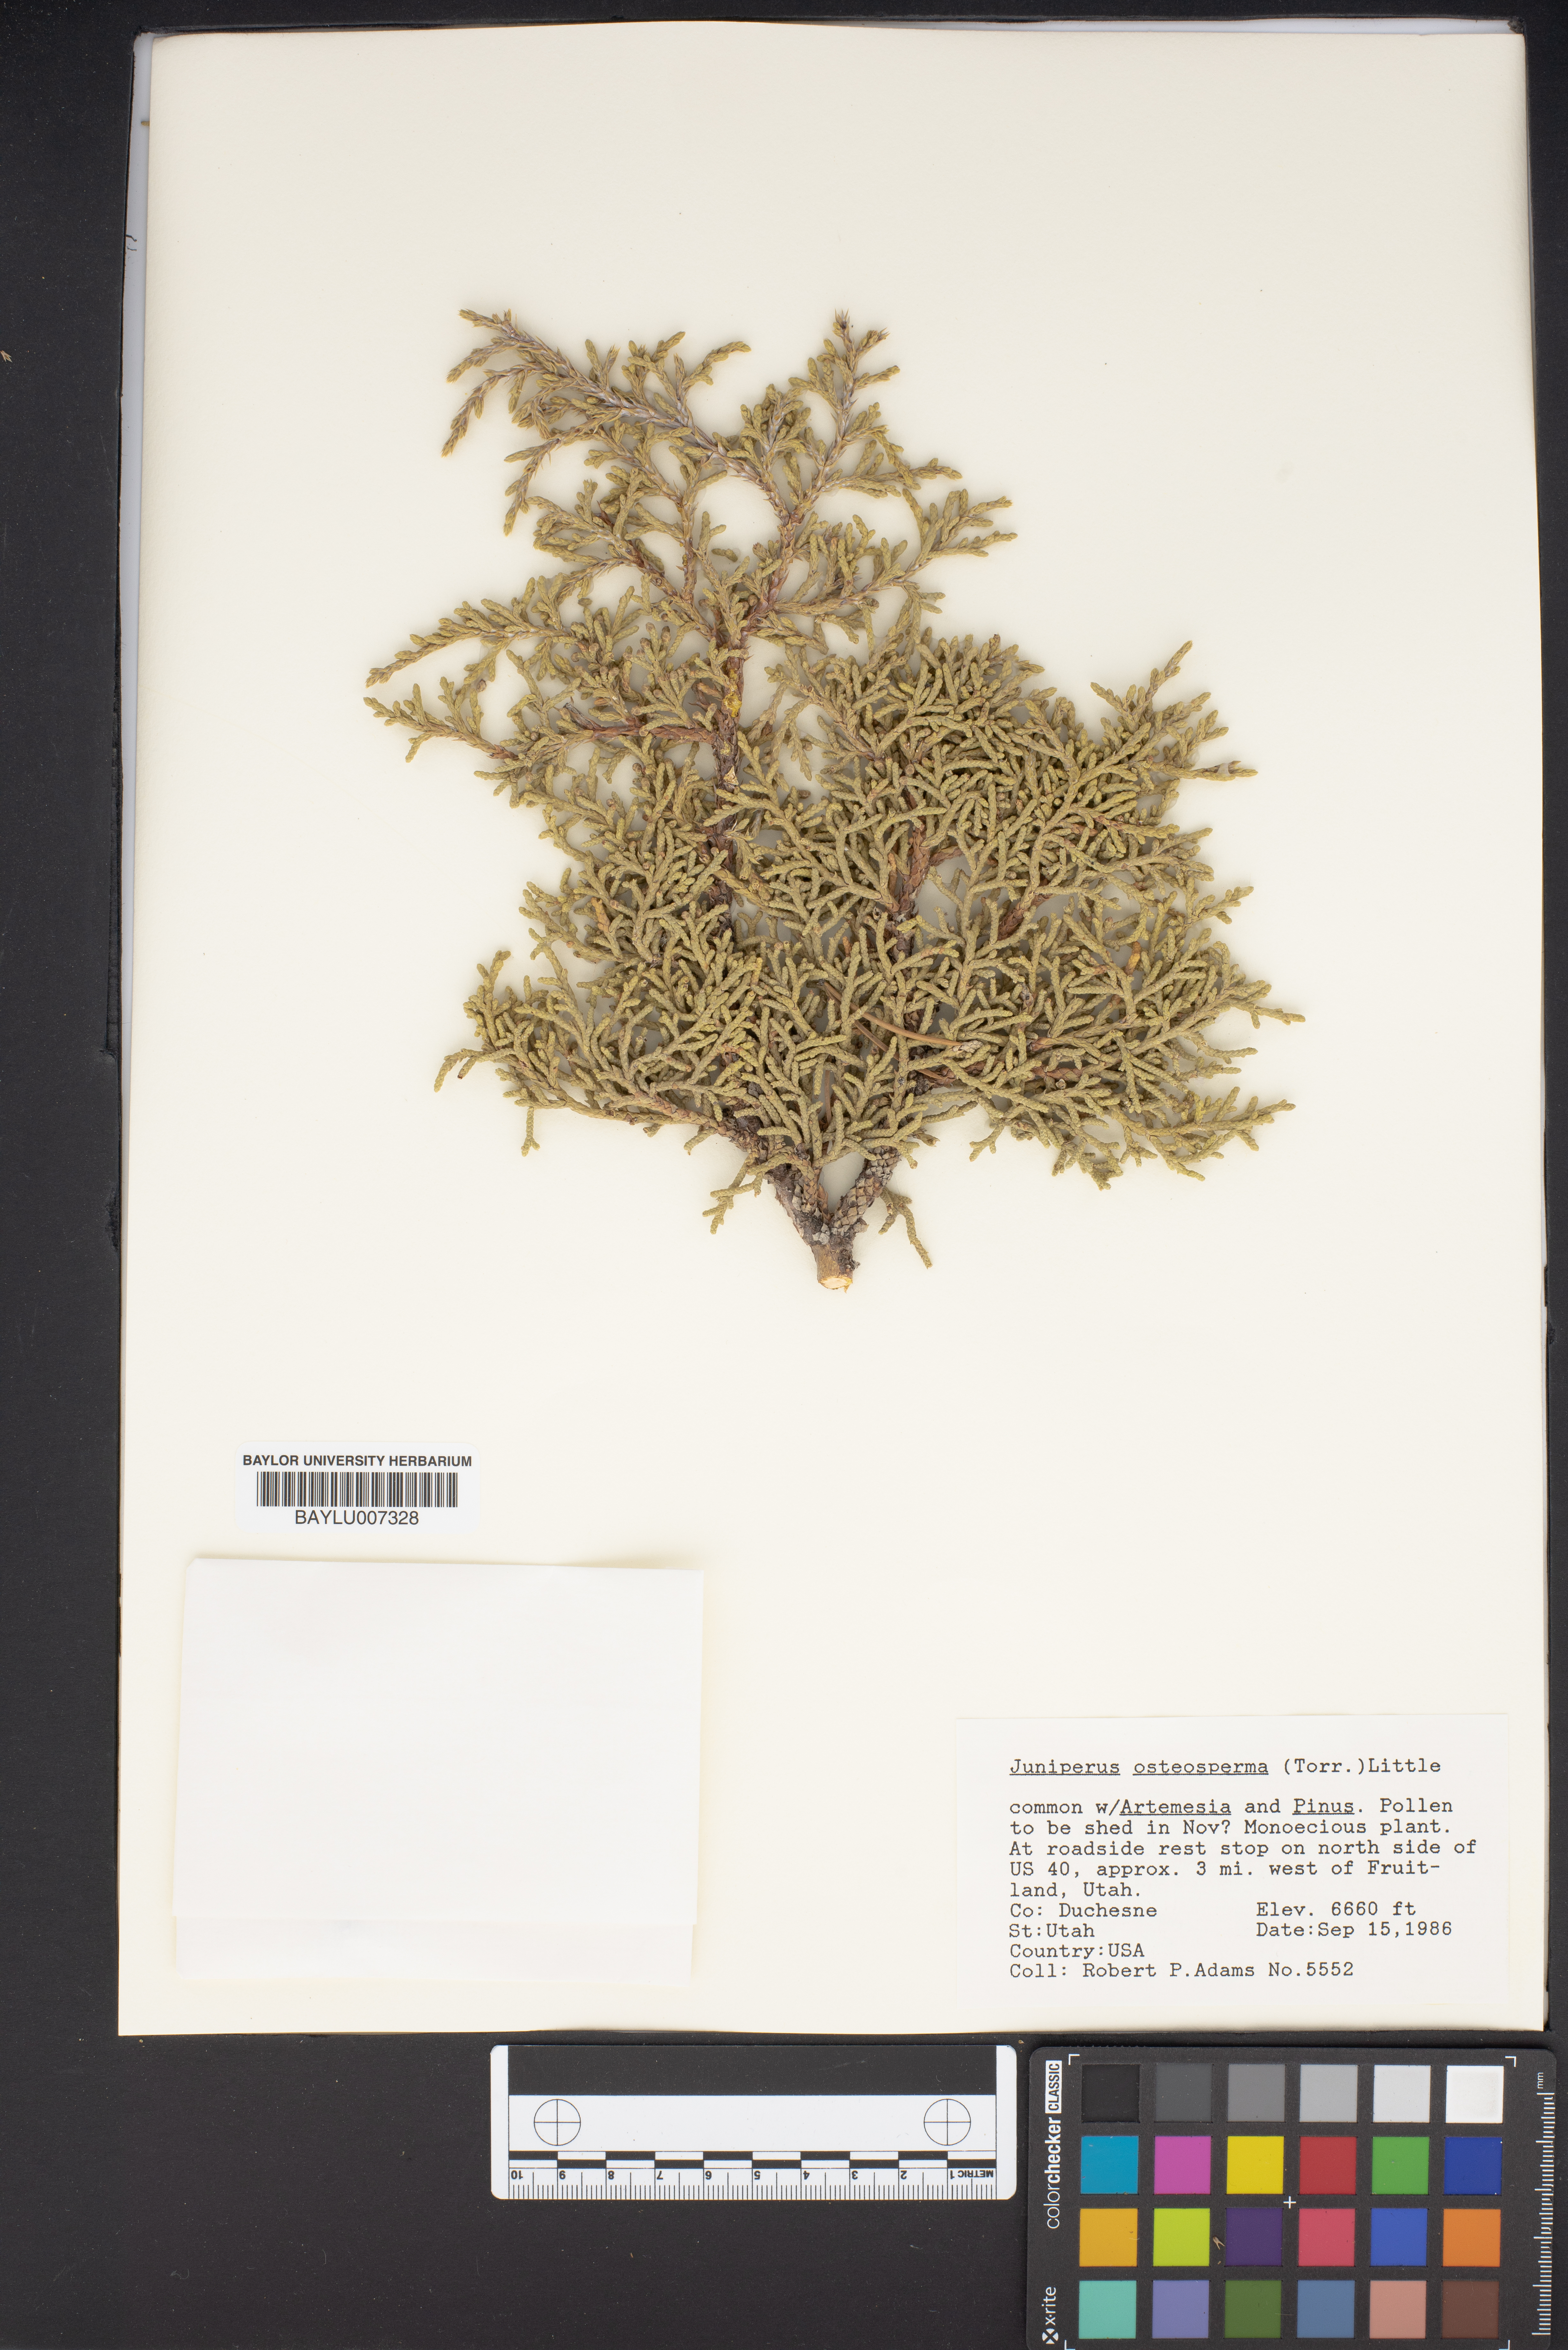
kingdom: Plantae
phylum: Tracheophyta
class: Pinopsida
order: Pinales
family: Cupressaceae
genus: Juniperus
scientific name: Juniperus osteosperma
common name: Utah juniper
